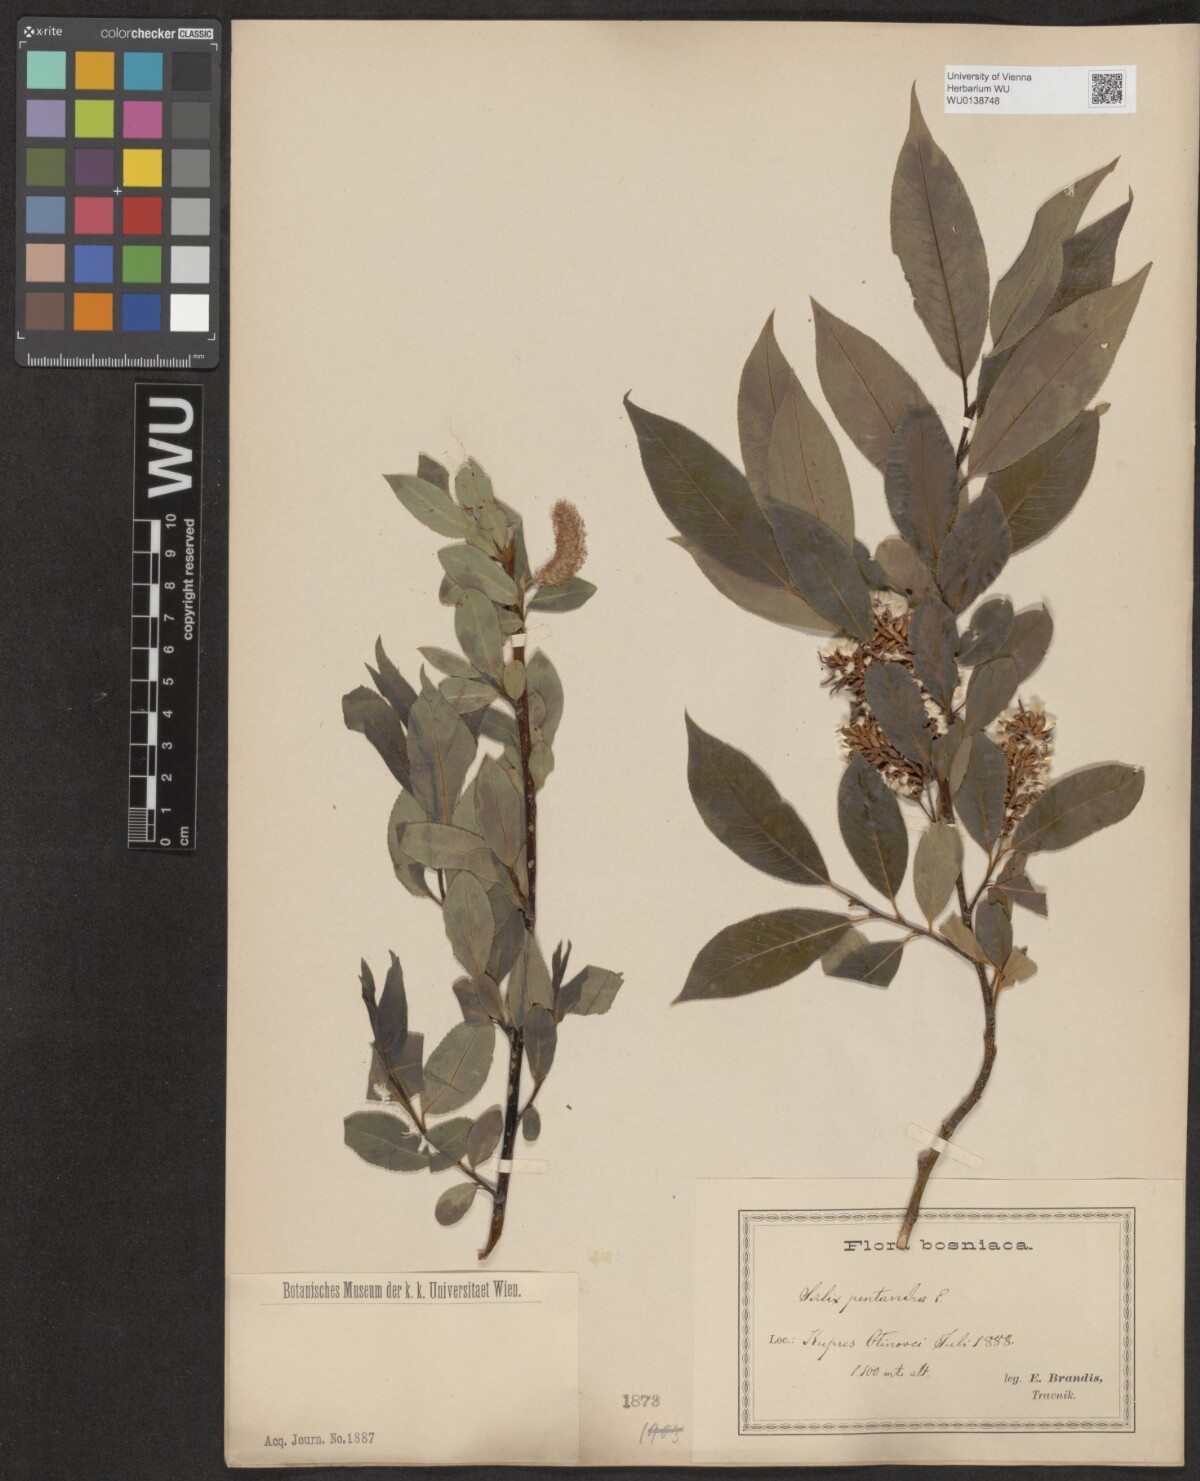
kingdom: Plantae
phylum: Tracheophyta
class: Magnoliopsida
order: Malpighiales
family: Salicaceae
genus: Salix
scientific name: Salix pentandra
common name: Bay willow
